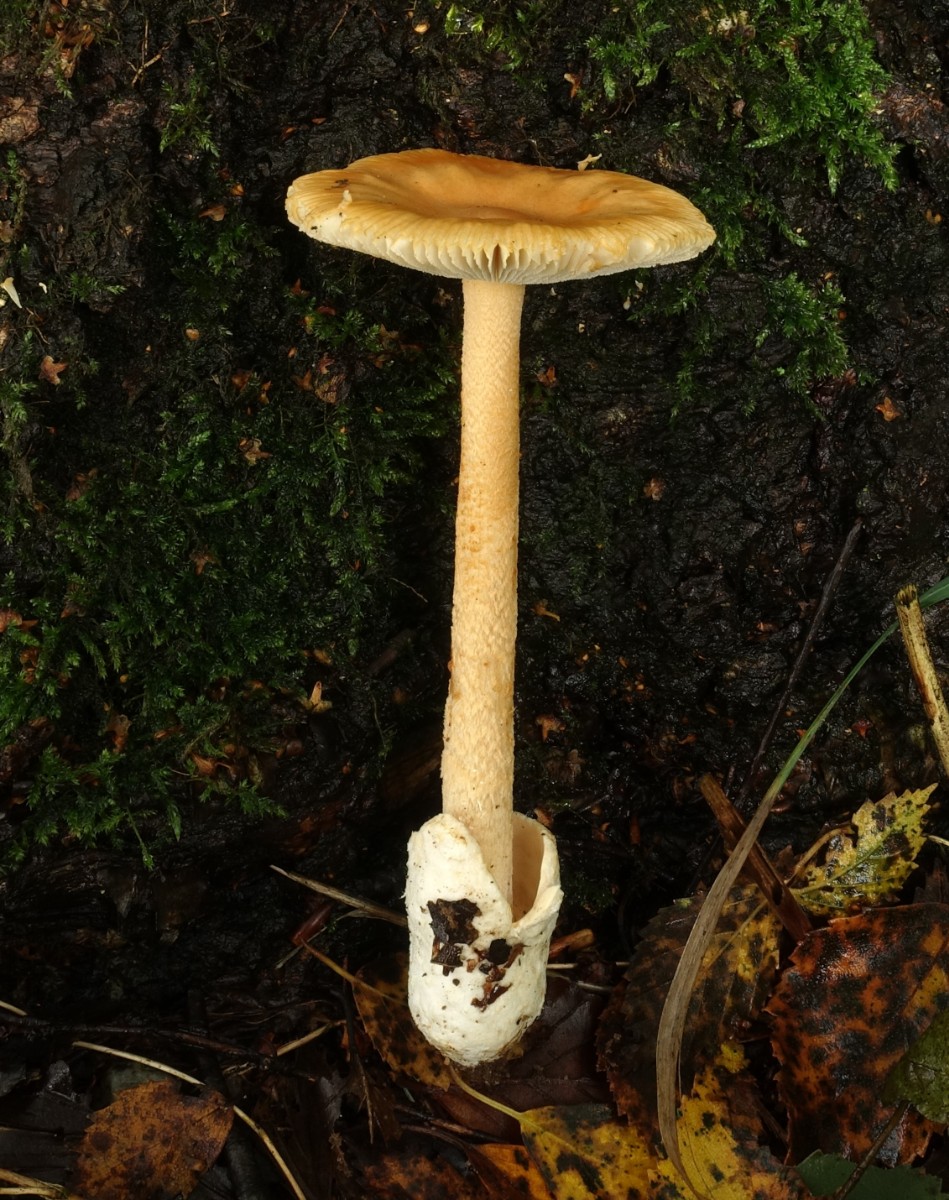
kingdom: Fungi
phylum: Basidiomycota
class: Agaricomycetes
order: Agaricales
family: Amanitaceae
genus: Amanita
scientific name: Amanita crocea
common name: gylden kam-fluesvamp
